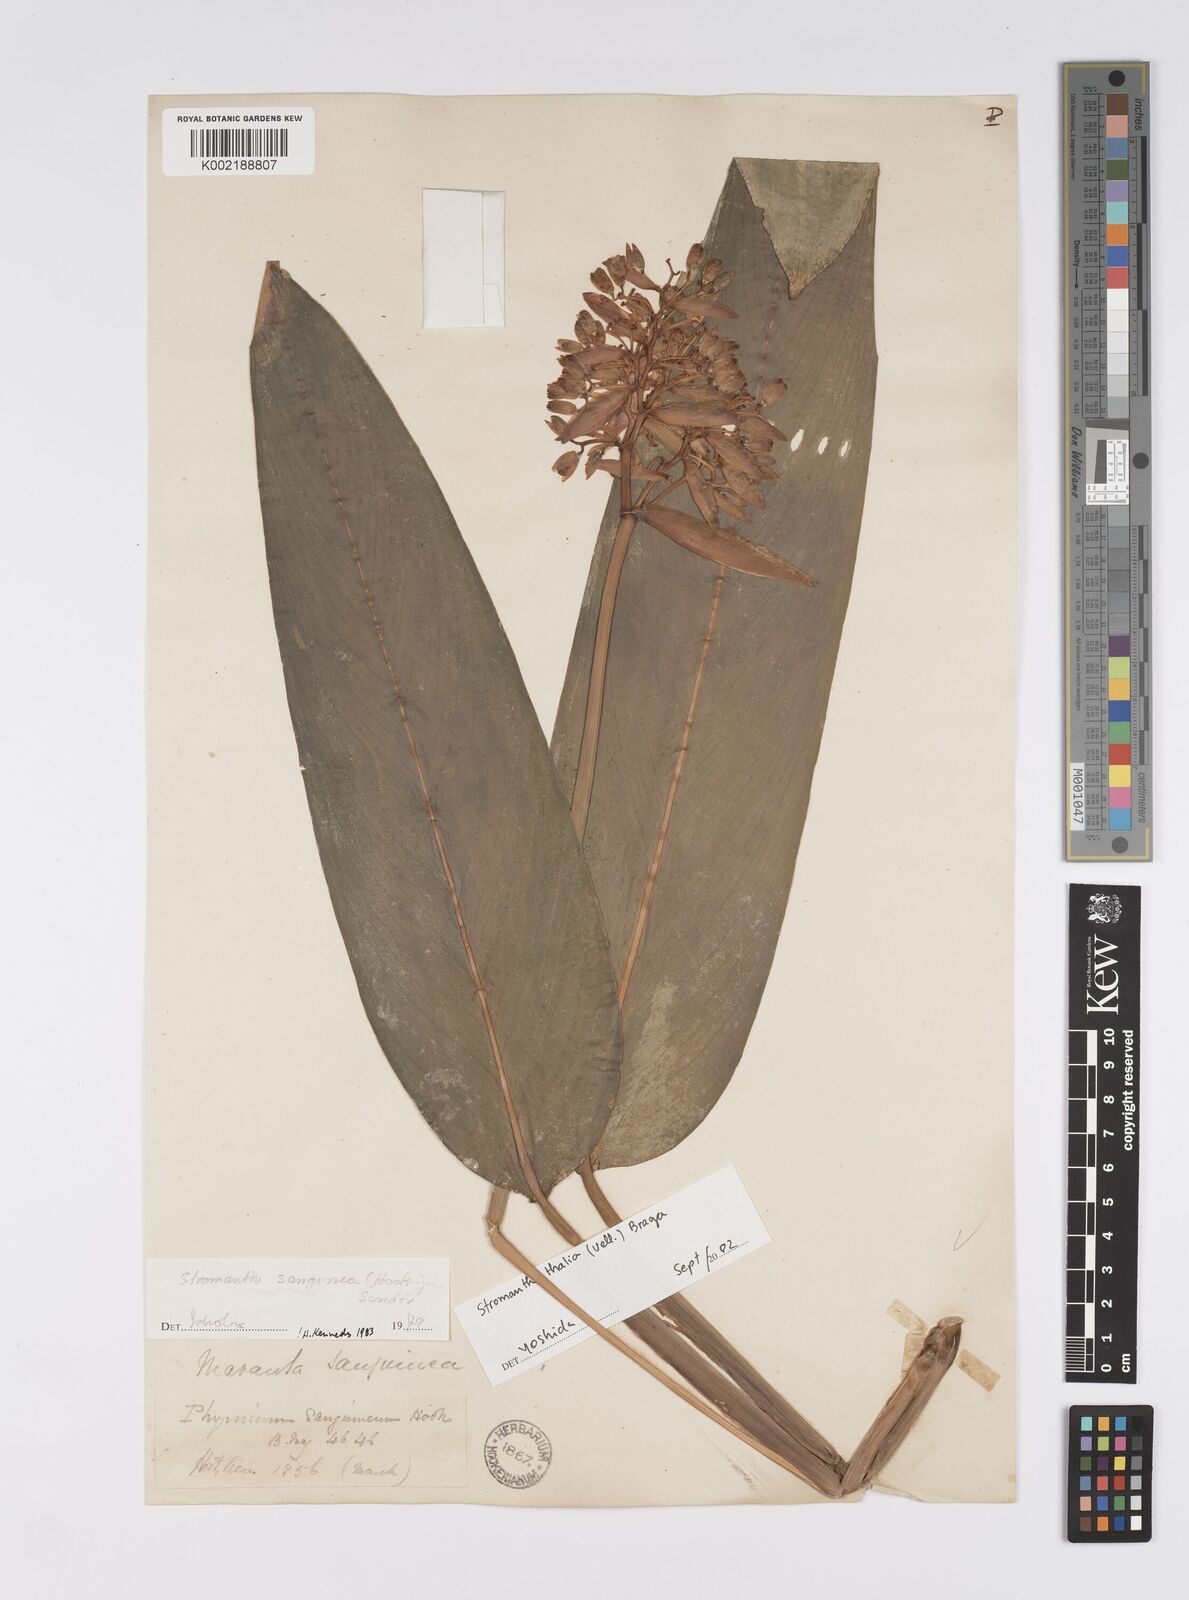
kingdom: Plantae
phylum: Tracheophyta
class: Liliopsida
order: Zingiberales
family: Marantaceae
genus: Stromanthe
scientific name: Stromanthe thalia
